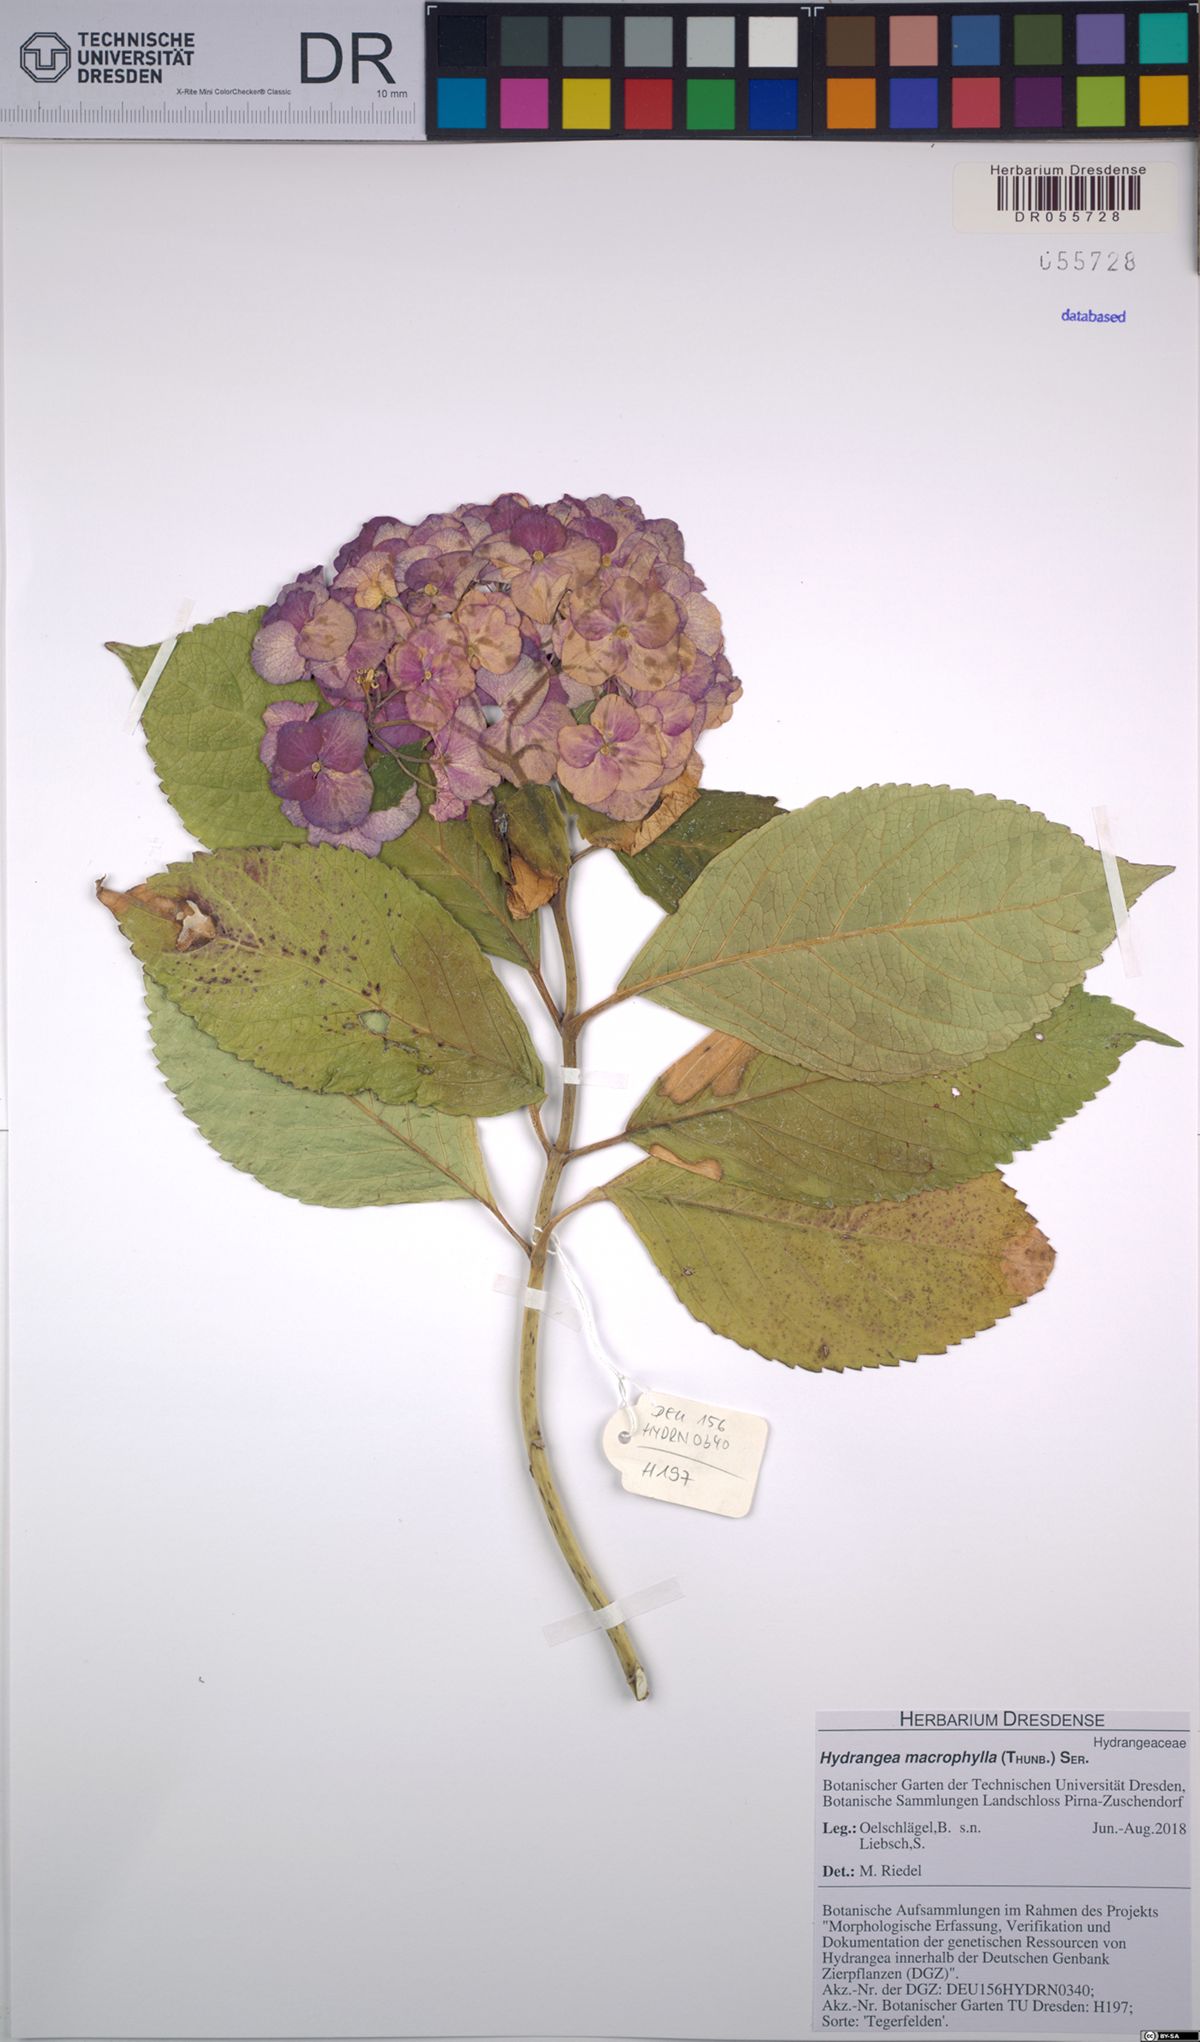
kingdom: Plantae
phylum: Tracheophyta
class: Magnoliopsida
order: Cornales
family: Hydrangeaceae
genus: Hydrangea
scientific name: Hydrangea macrophylla
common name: Hydrangea
